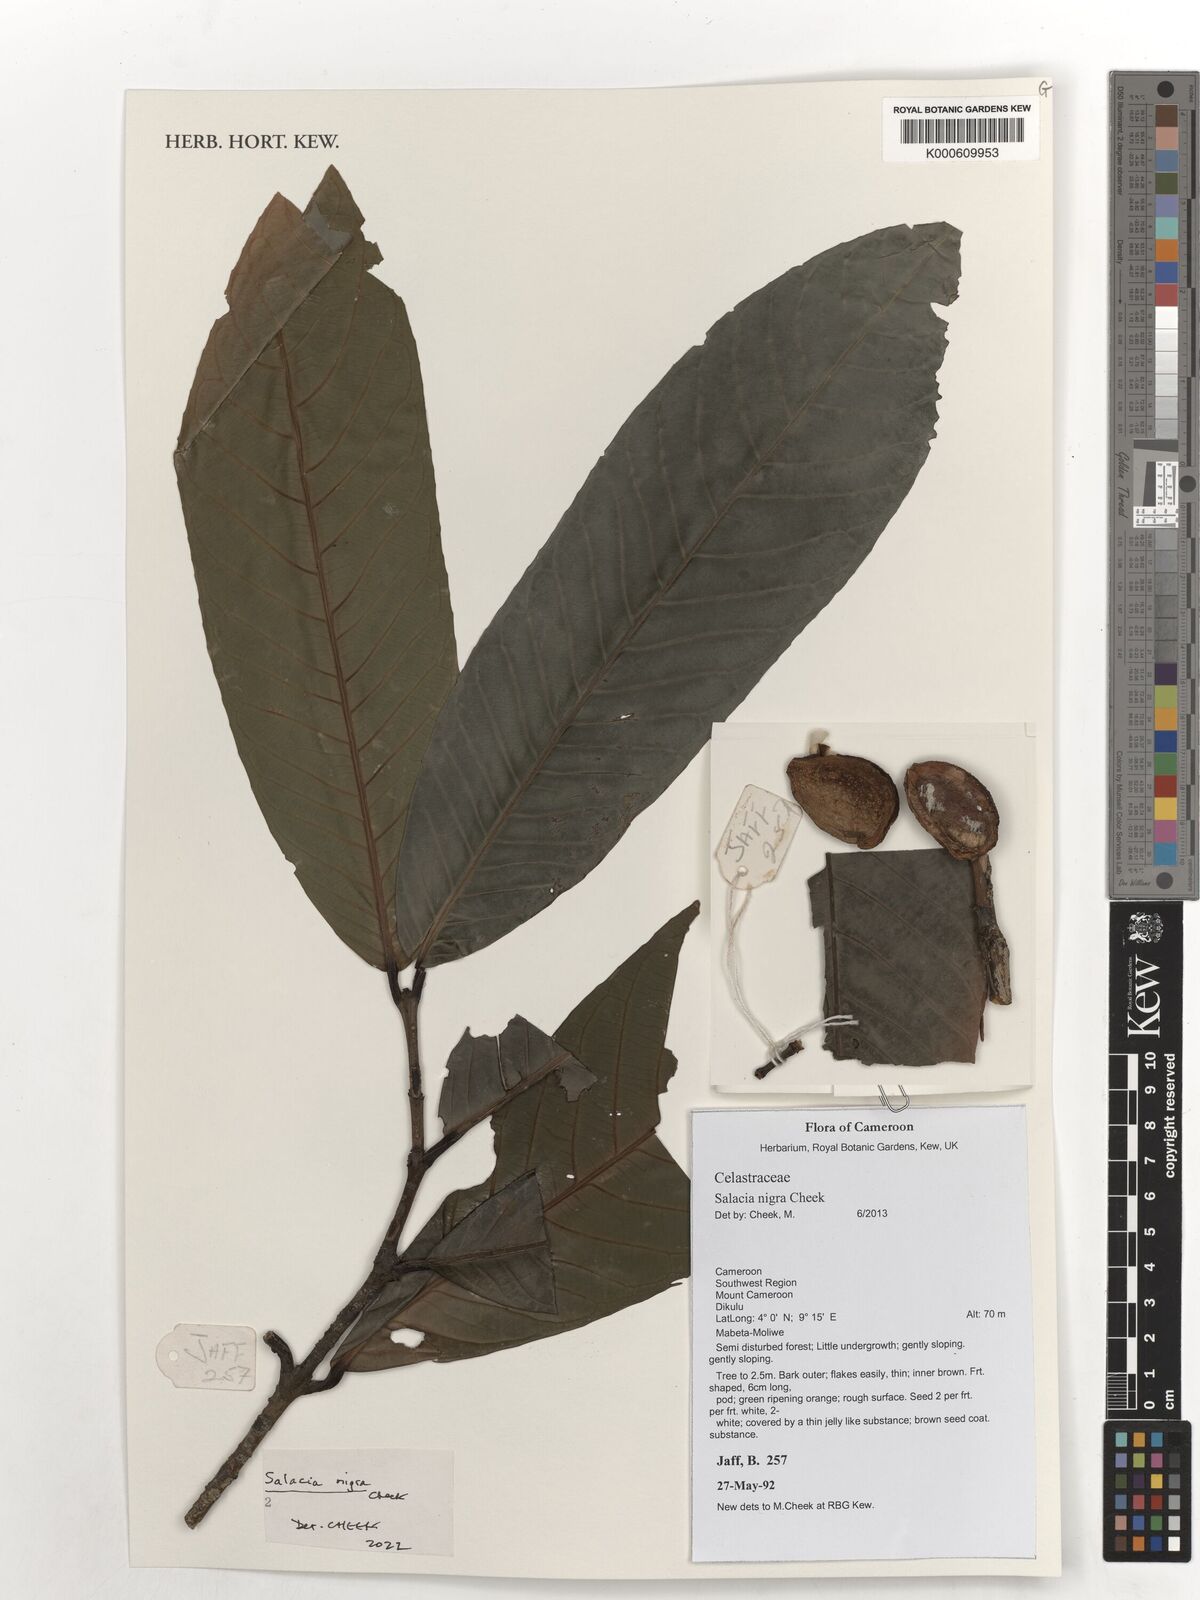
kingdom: Plantae
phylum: Tracheophyta
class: Magnoliopsida
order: Celastrales
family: Celastraceae
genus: Salacia
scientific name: Salacia nigra
